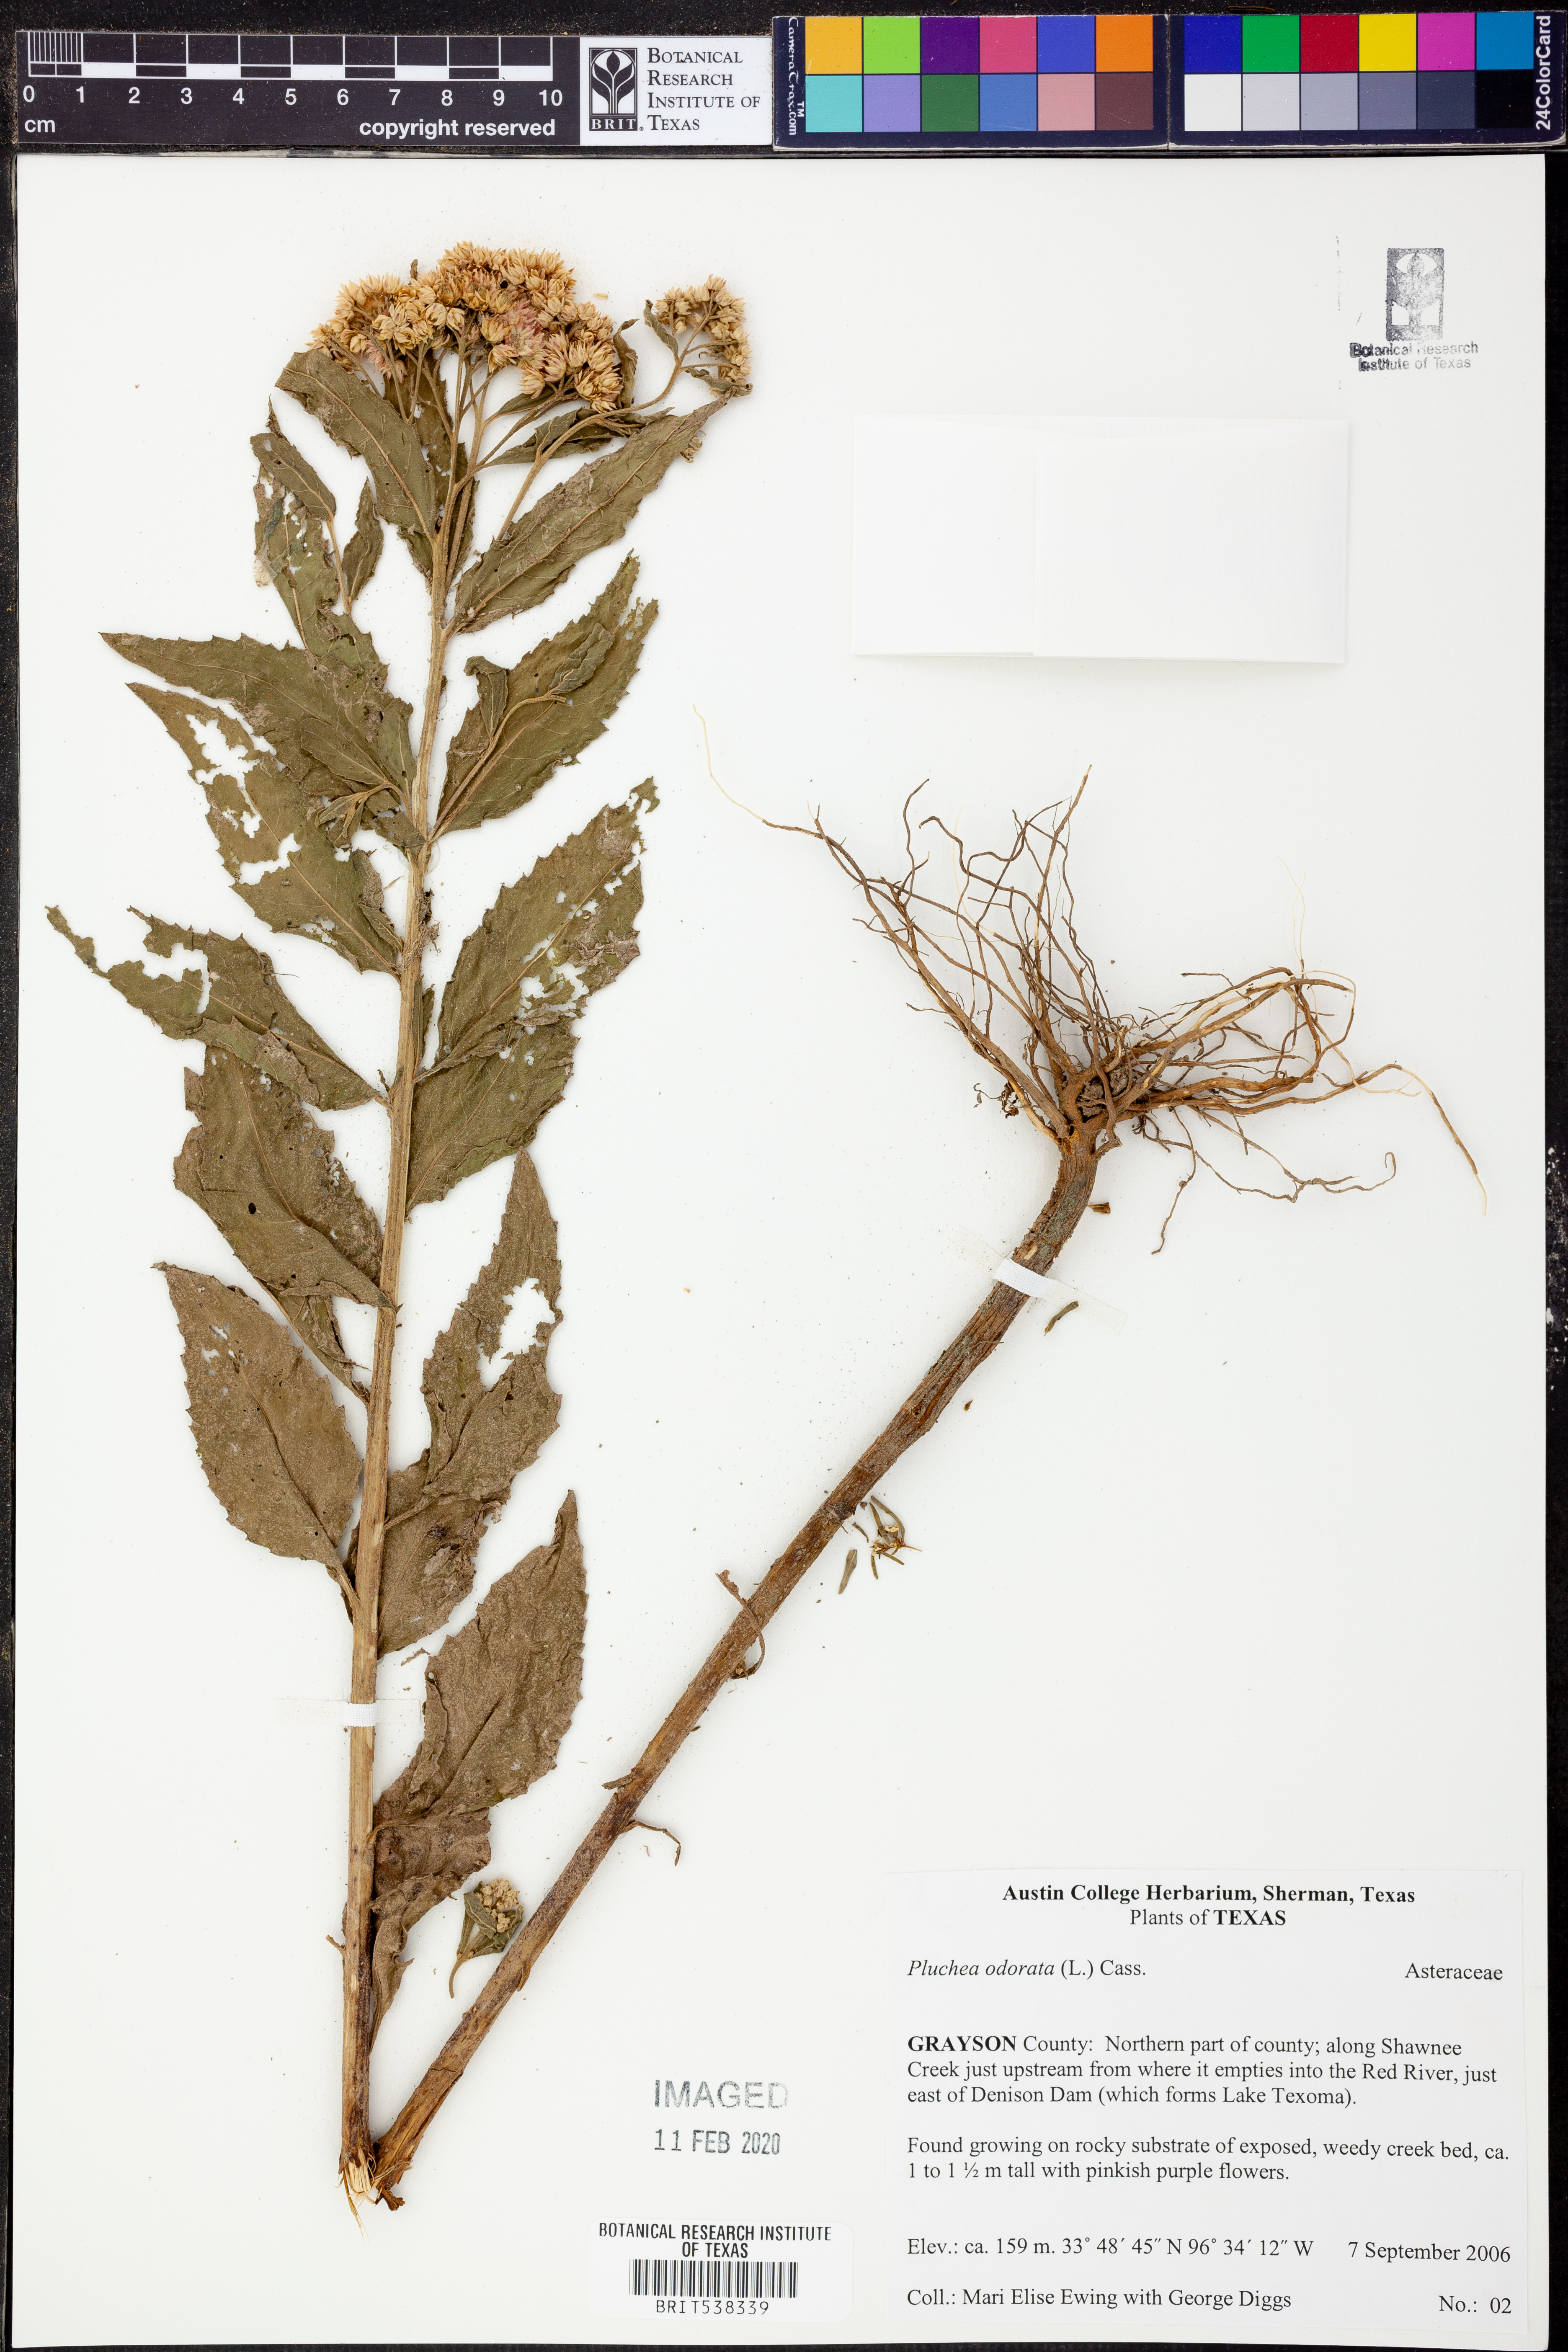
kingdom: Plantae
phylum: Tracheophyta
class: Magnoliopsida
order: Asterales
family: Asteraceae
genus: Pluchea
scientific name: Pluchea odorata
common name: Saltmarsh fleabane
